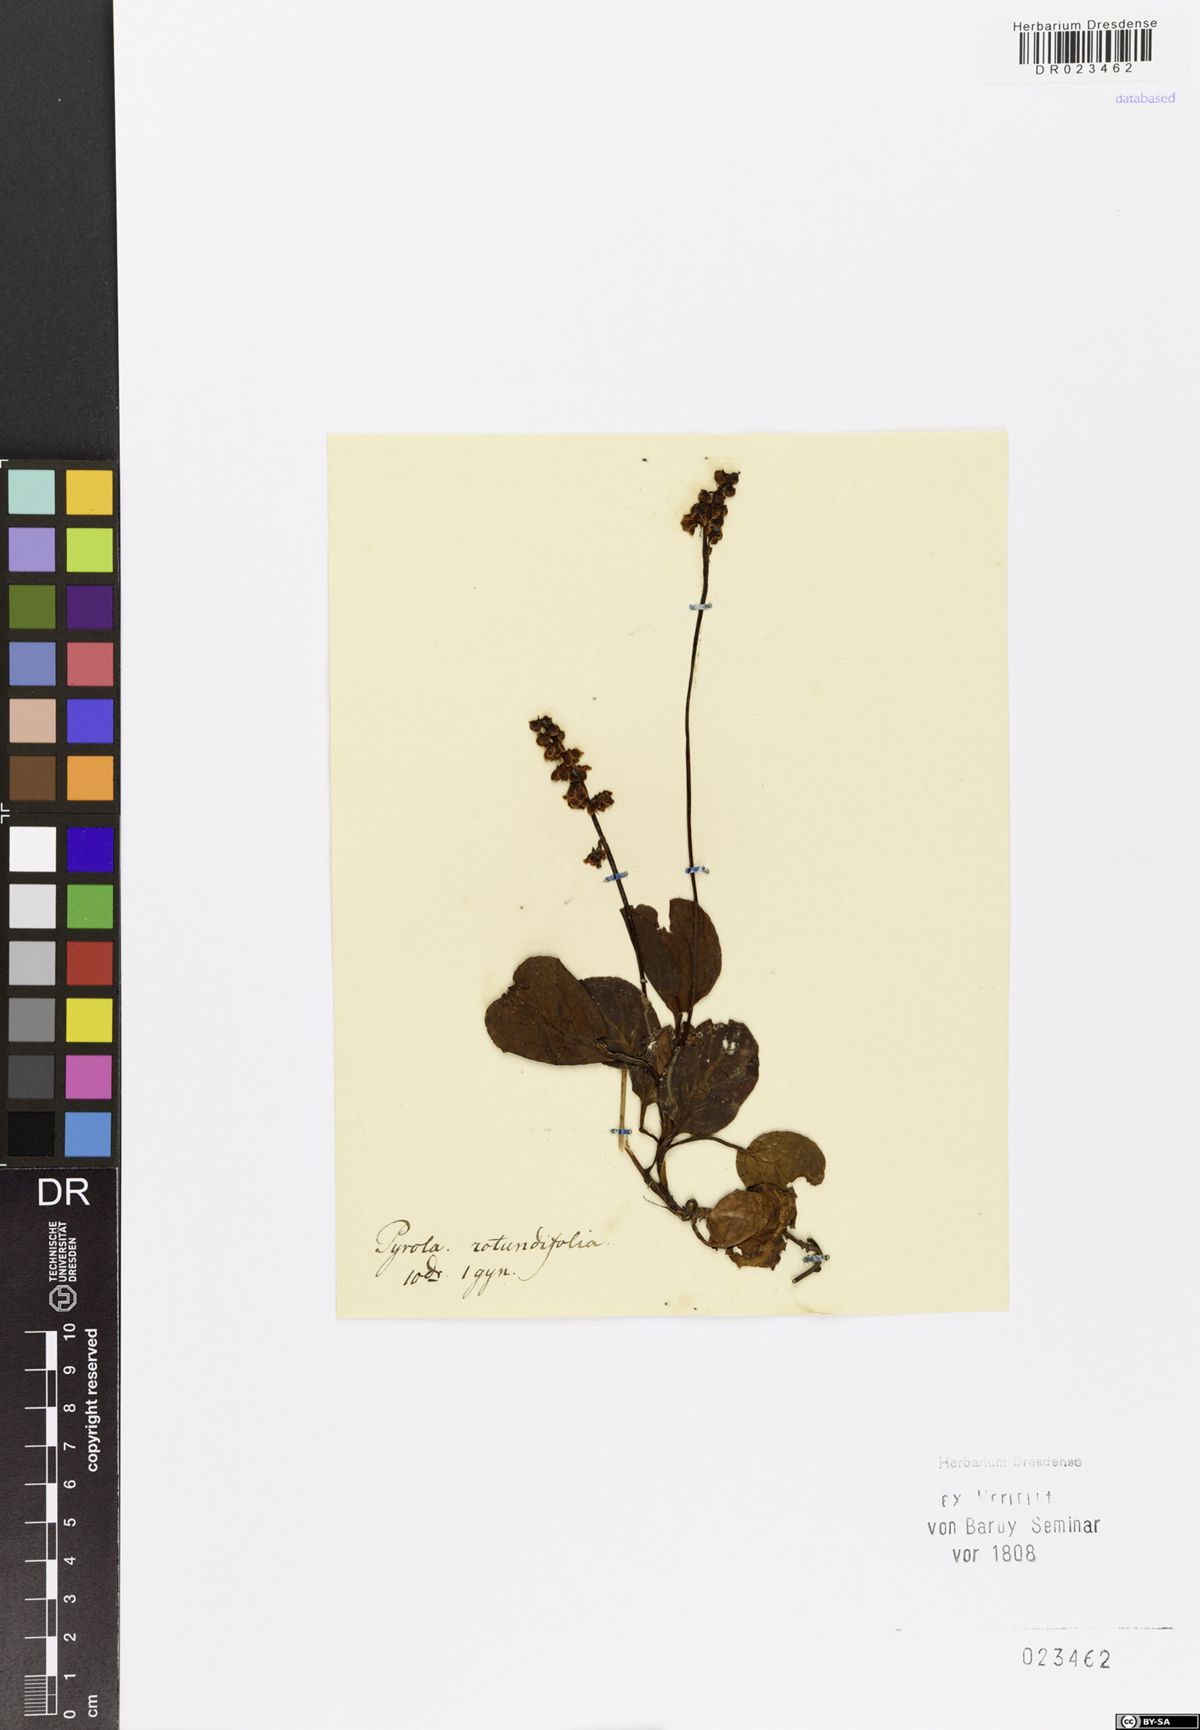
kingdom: Plantae
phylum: Tracheophyta
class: Magnoliopsida
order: Ericales
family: Ericaceae
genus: Pyrola
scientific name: Pyrola rotundifolia
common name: Round-leaved wintergreen
